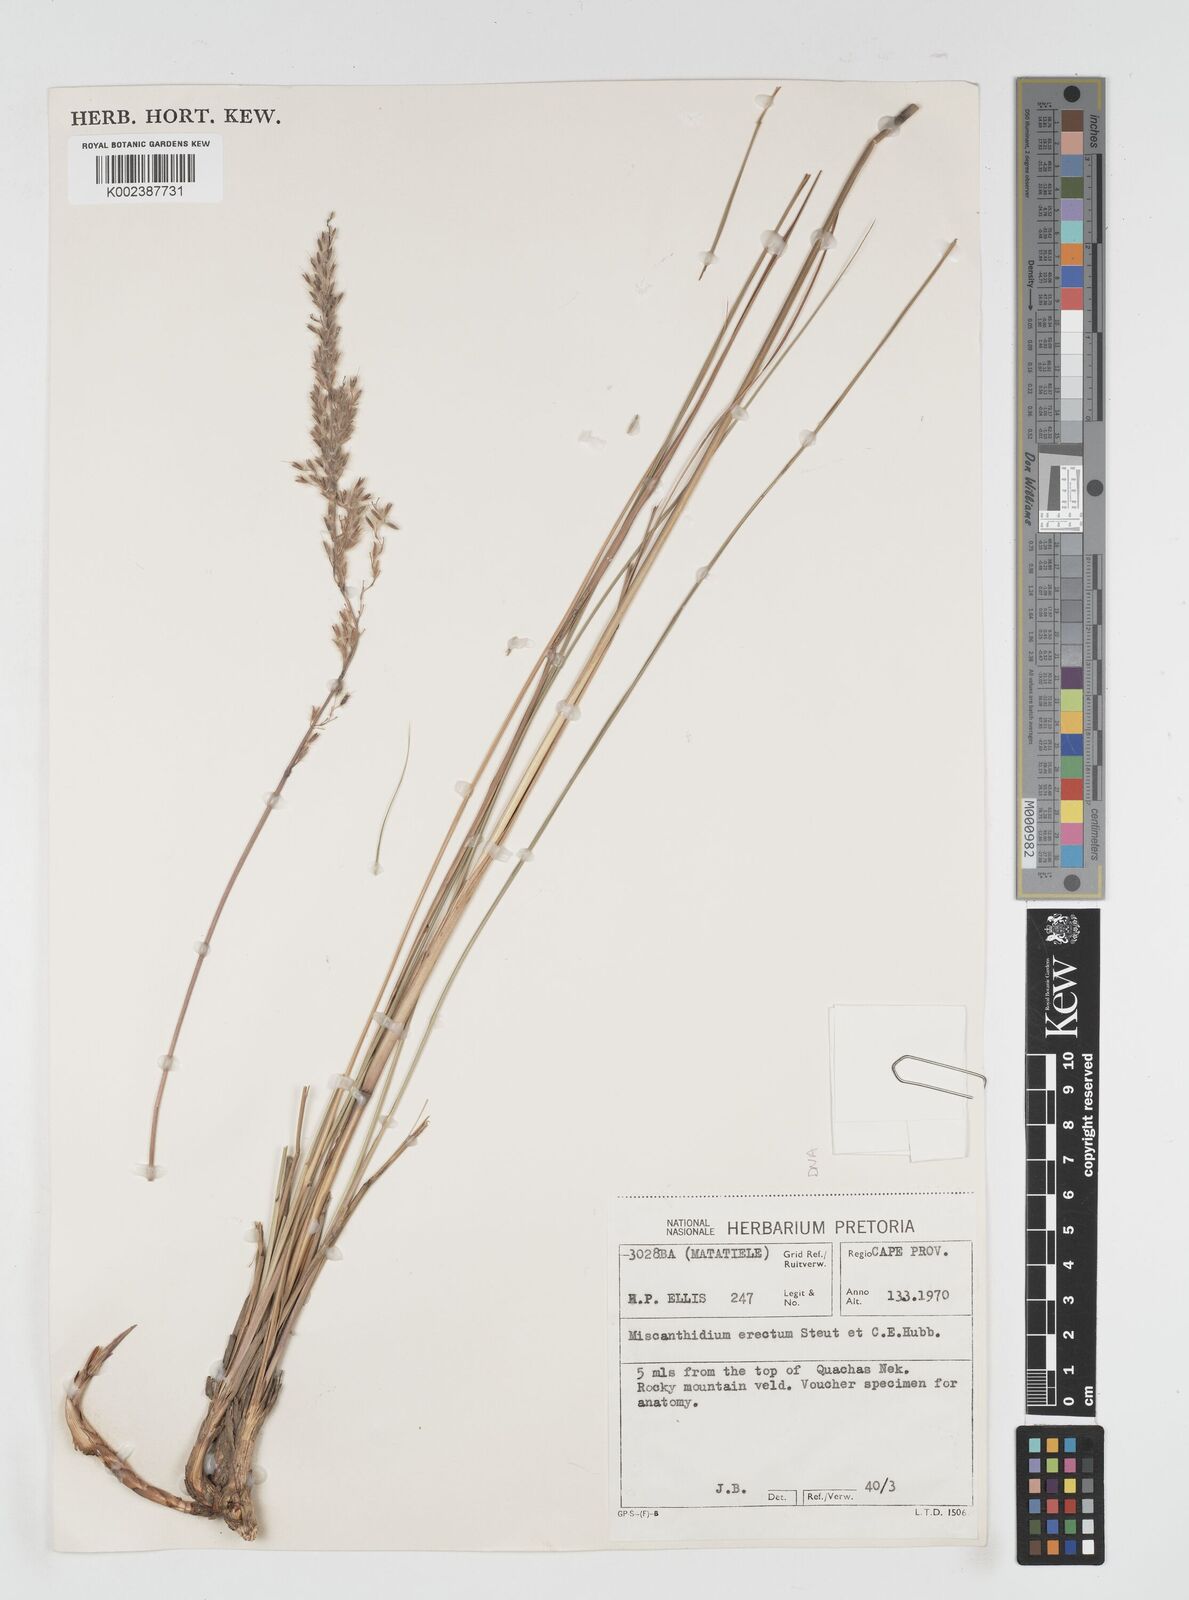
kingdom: Plantae
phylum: Tracheophyta
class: Liliopsida
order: Poales
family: Poaceae
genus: Miscanthus
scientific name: Miscanthus ecklonii
